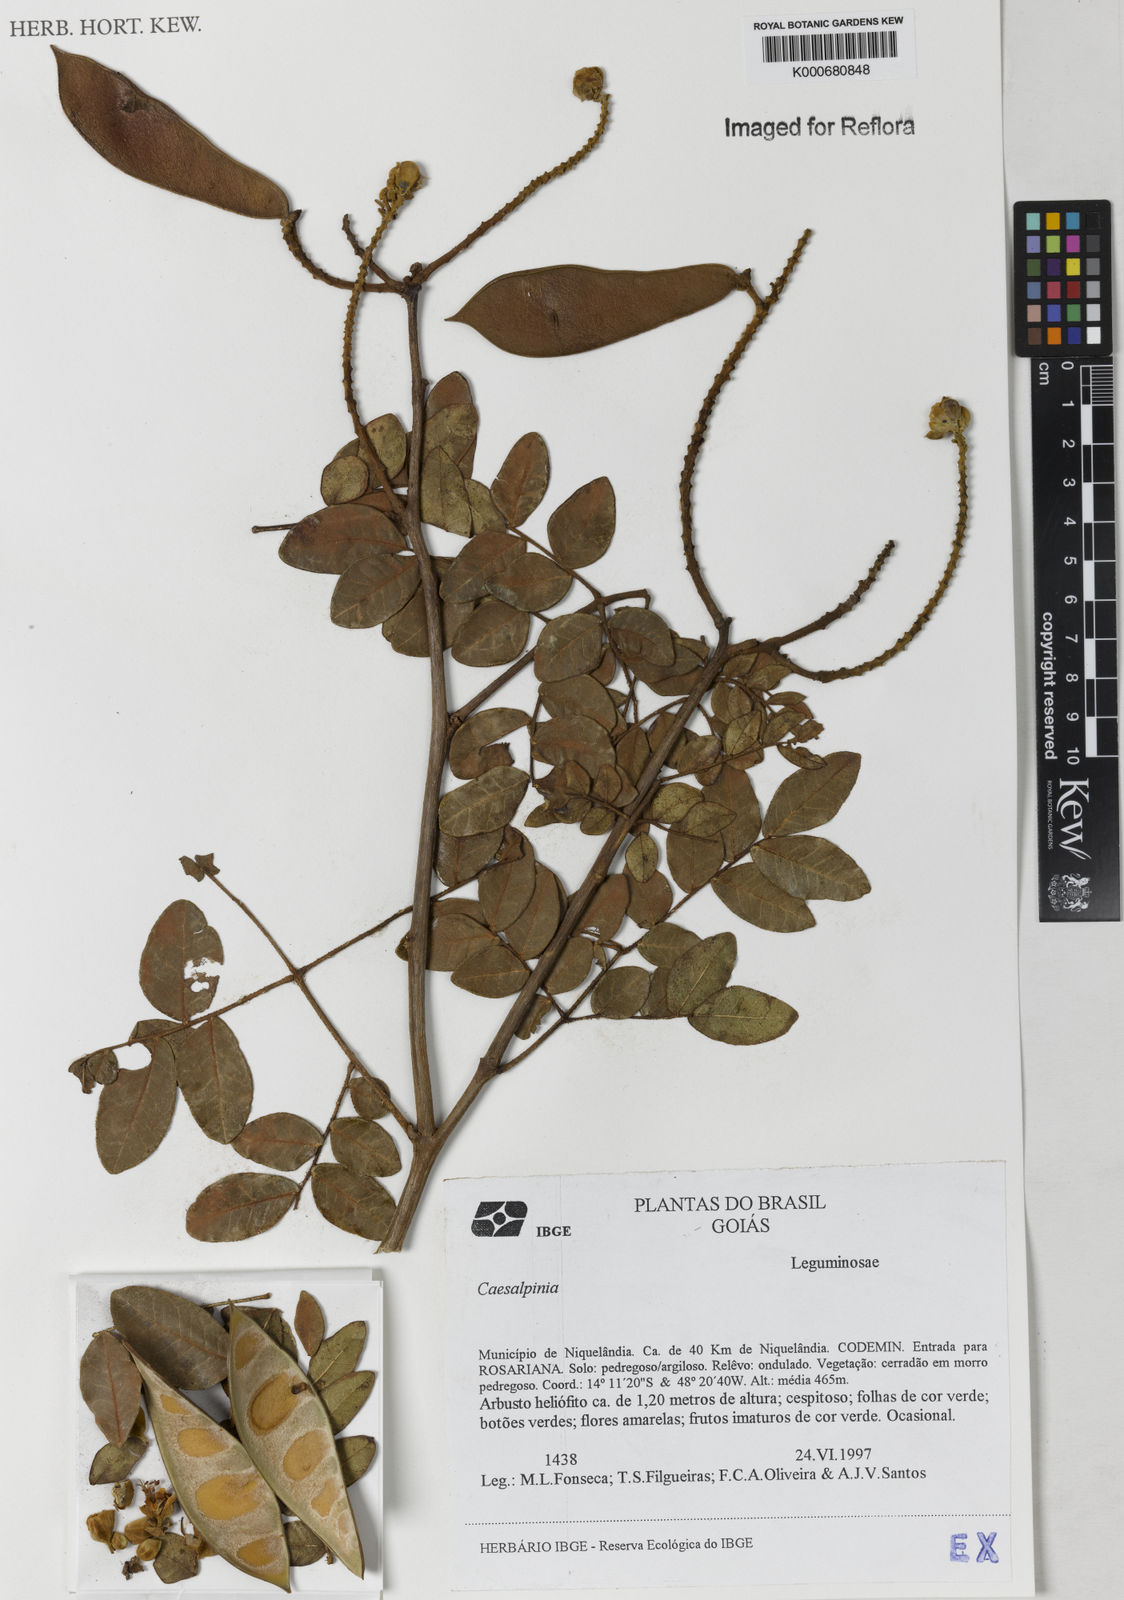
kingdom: Plantae
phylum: Tracheophyta
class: Magnoliopsida
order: Fabales
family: Fabaceae
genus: Caesalpinia
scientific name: Caesalpinia
